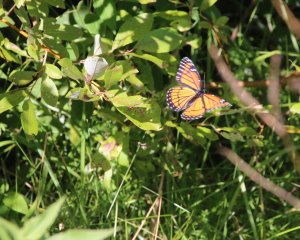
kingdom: Animalia
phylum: Arthropoda
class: Insecta
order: Lepidoptera
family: Nymphalidae
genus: Limenitis
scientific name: Limenitis archippus
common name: Viceroy
